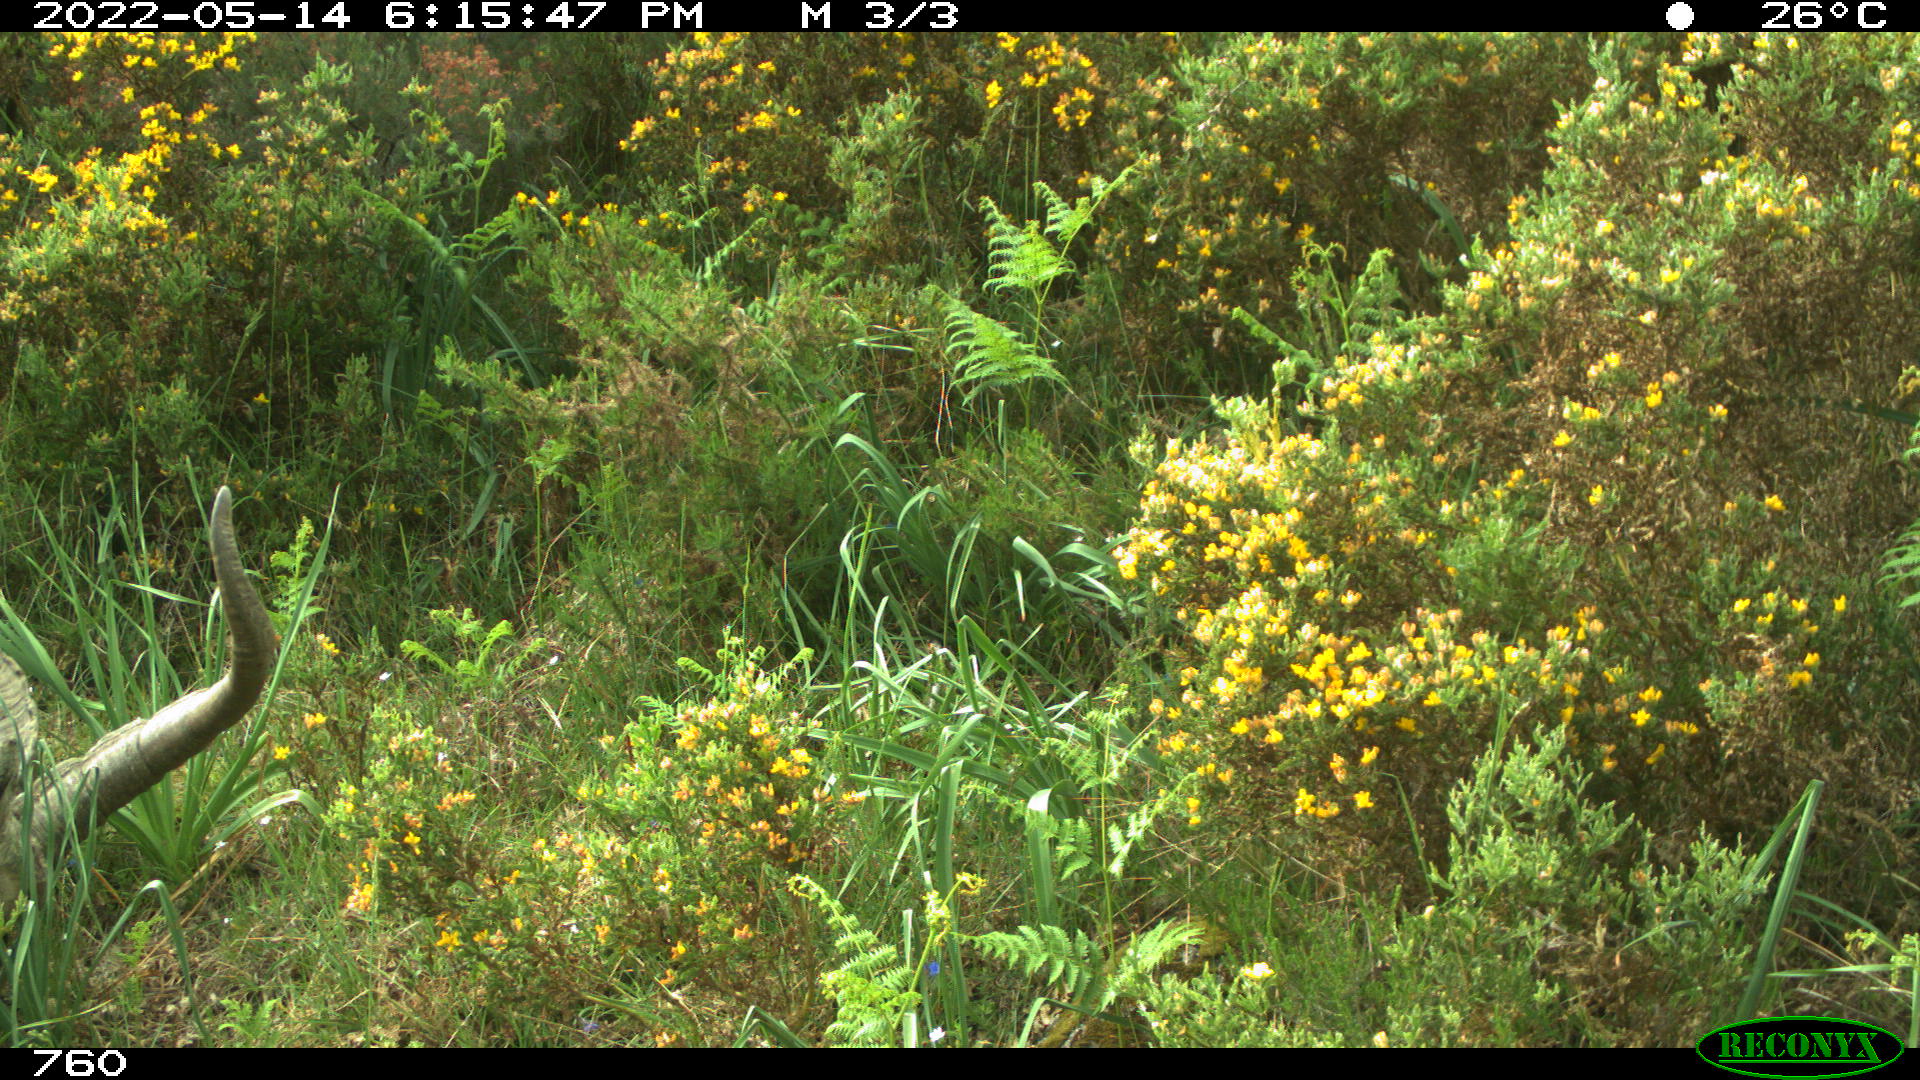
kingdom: Animalia
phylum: Chordata
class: Mammalia
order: Artiodactyla
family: Bovidae
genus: Capra
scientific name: Capra pyrenaica
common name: Spanish ibex
